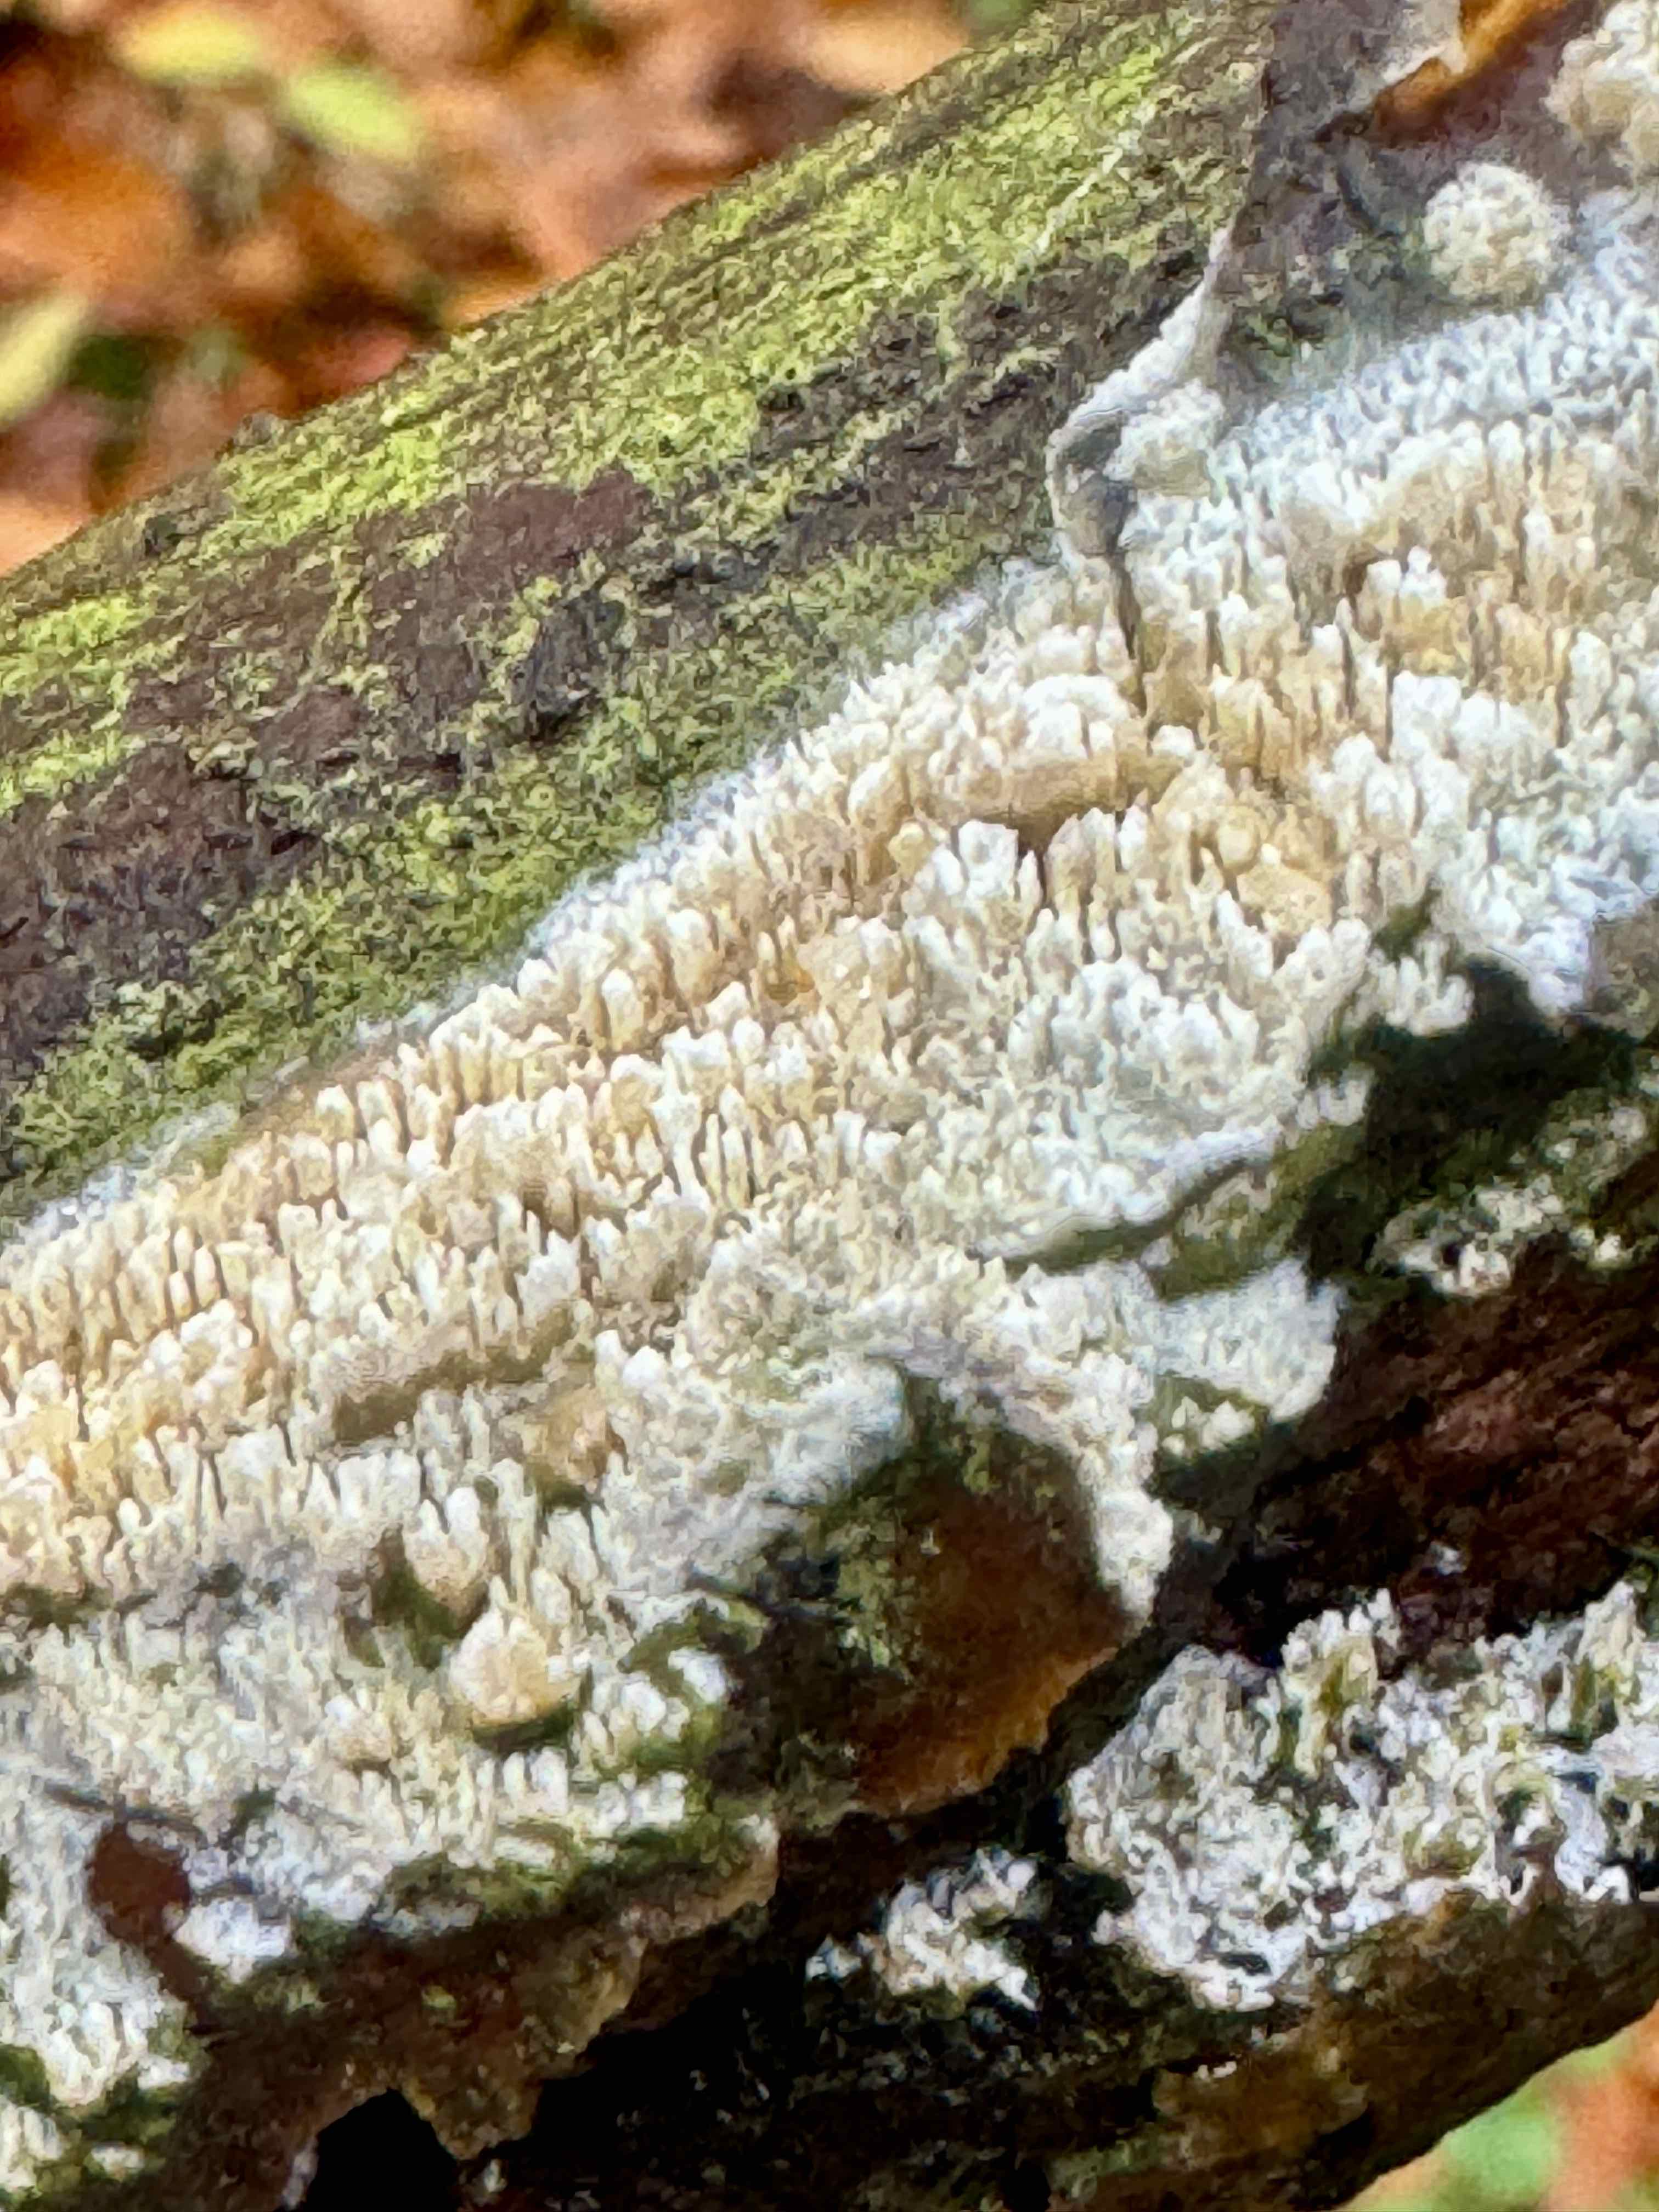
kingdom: Fungi
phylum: Basidiomycota
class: Agaricomycetes
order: Hymenochaetales
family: Schizoporaceae
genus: Schizopora
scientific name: Schizopora paradoxa
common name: hvid tandsvamp
